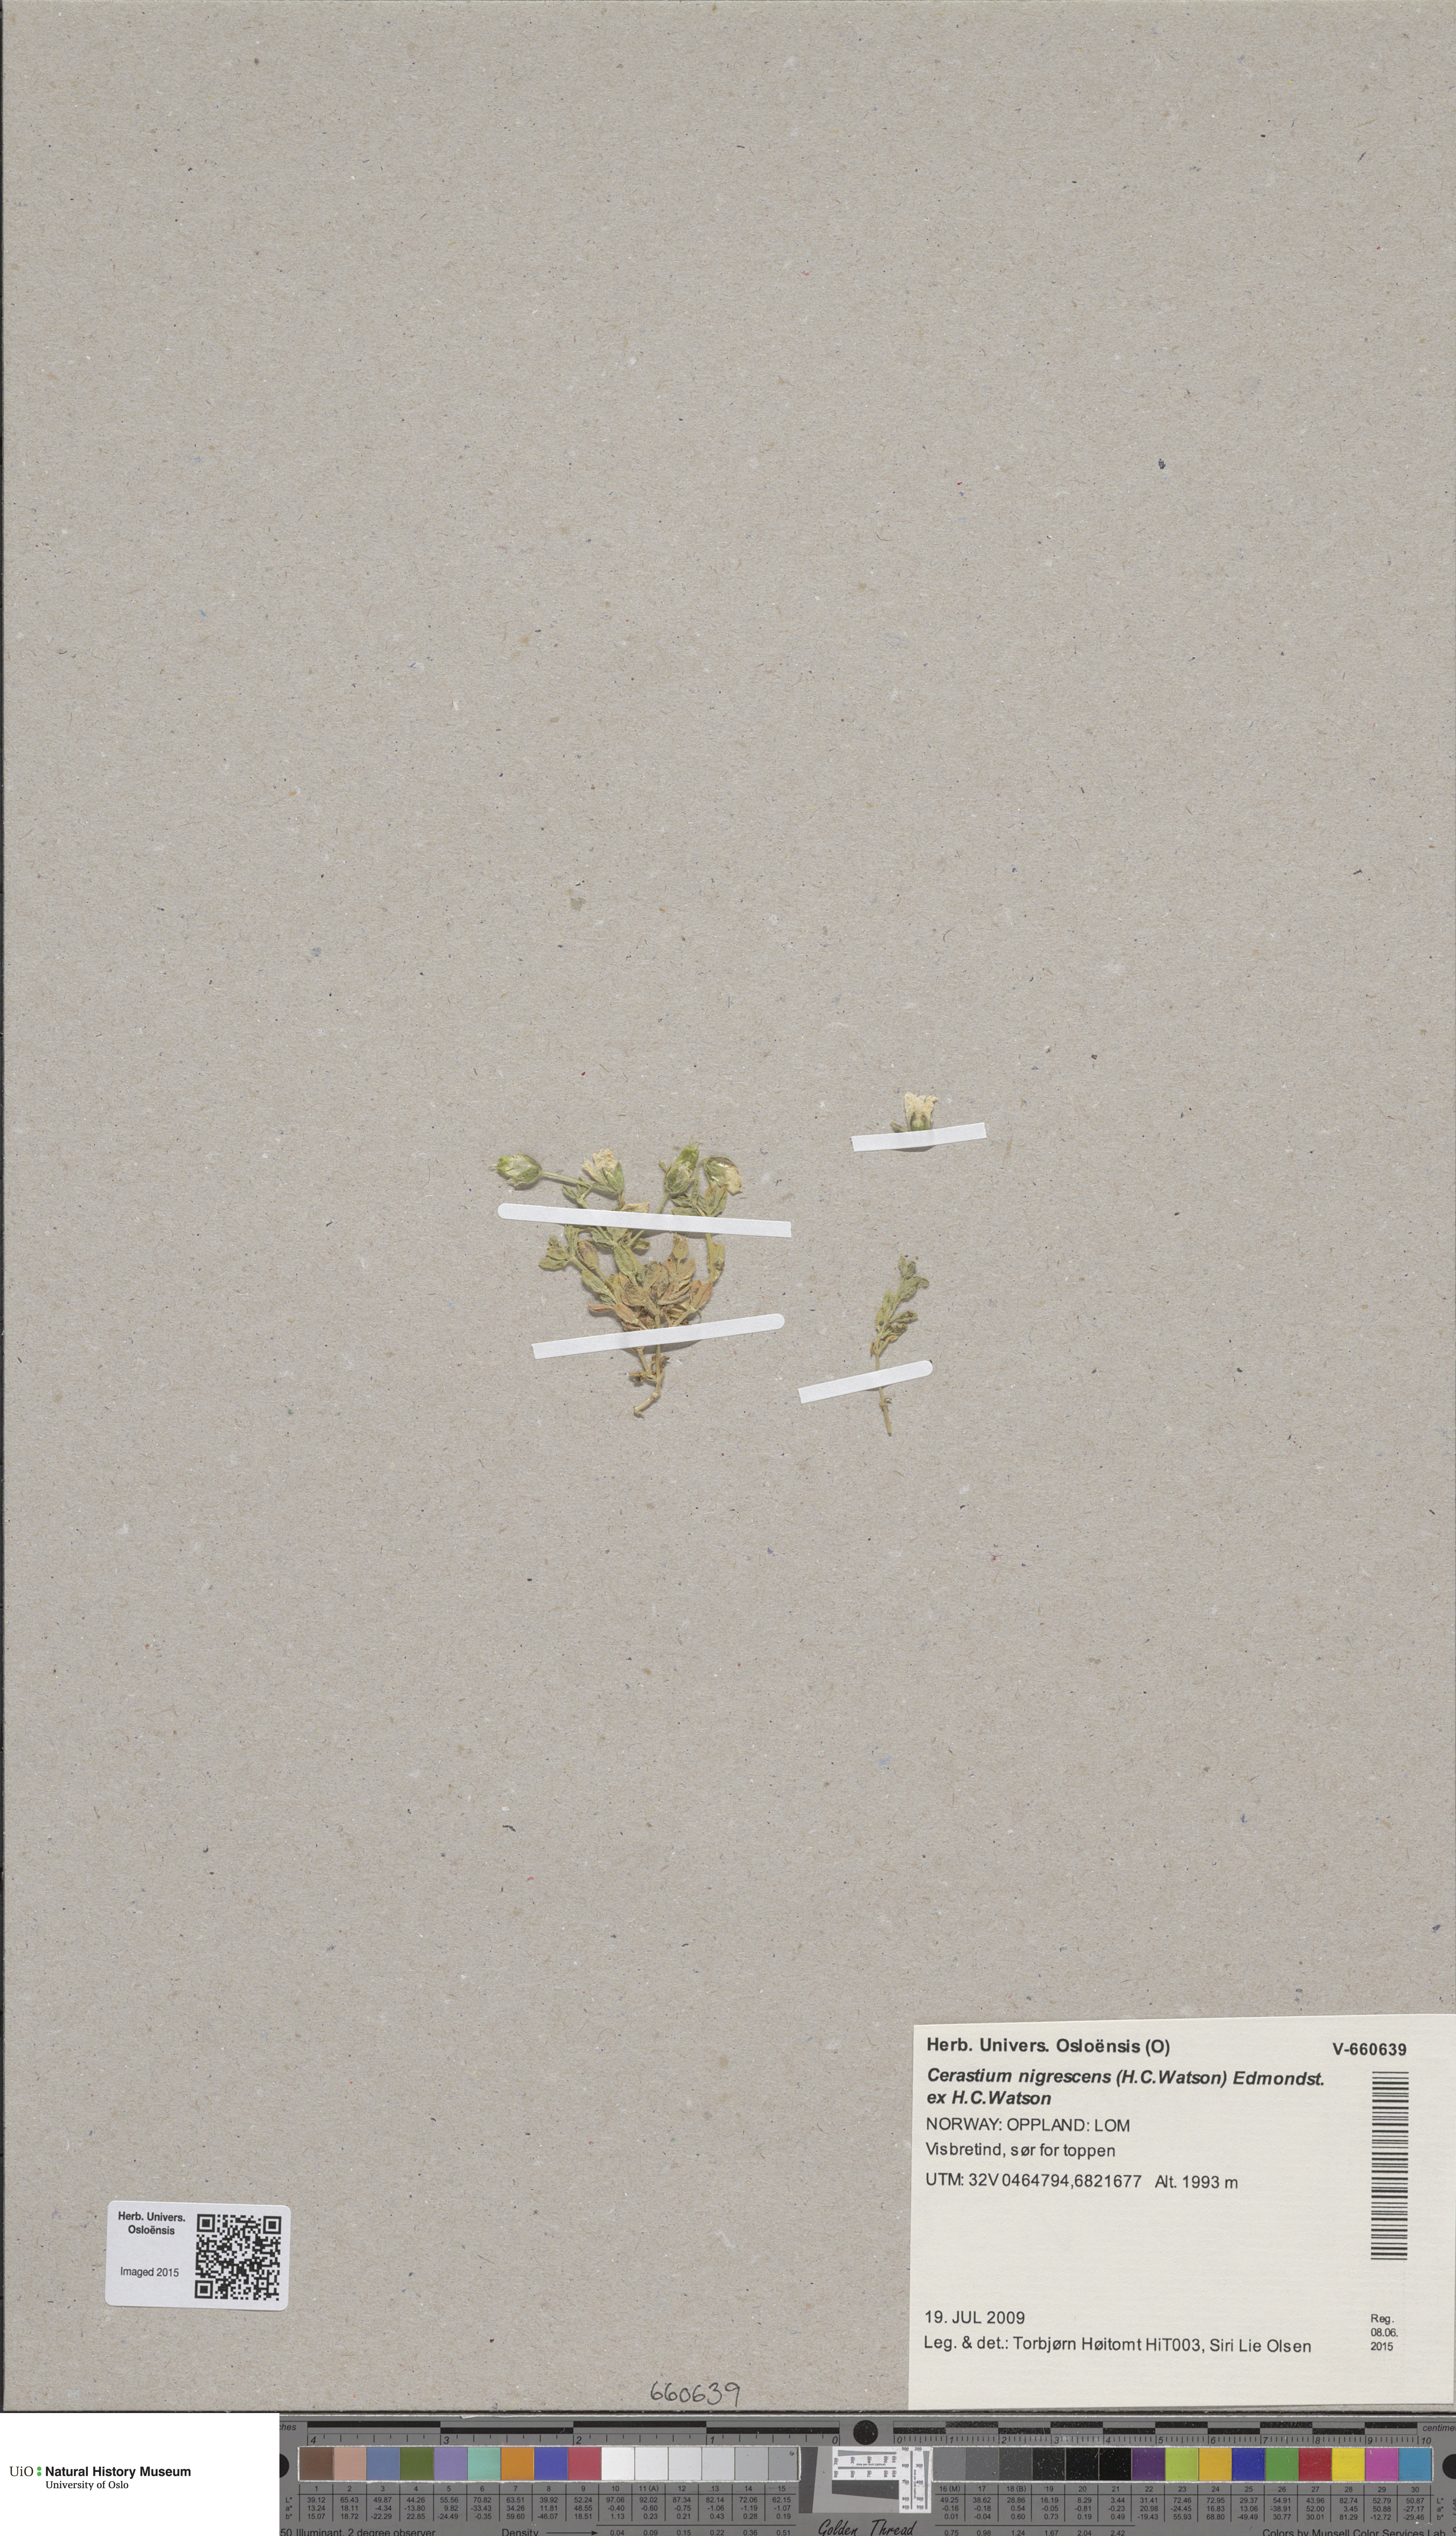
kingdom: Plantae
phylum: Tracheophyta
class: Magnoliopsida
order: Caryophyllales
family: Caryophyllaceae
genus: Cerastium
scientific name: Cerastium nigrescens
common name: Shetland mouse-ear
